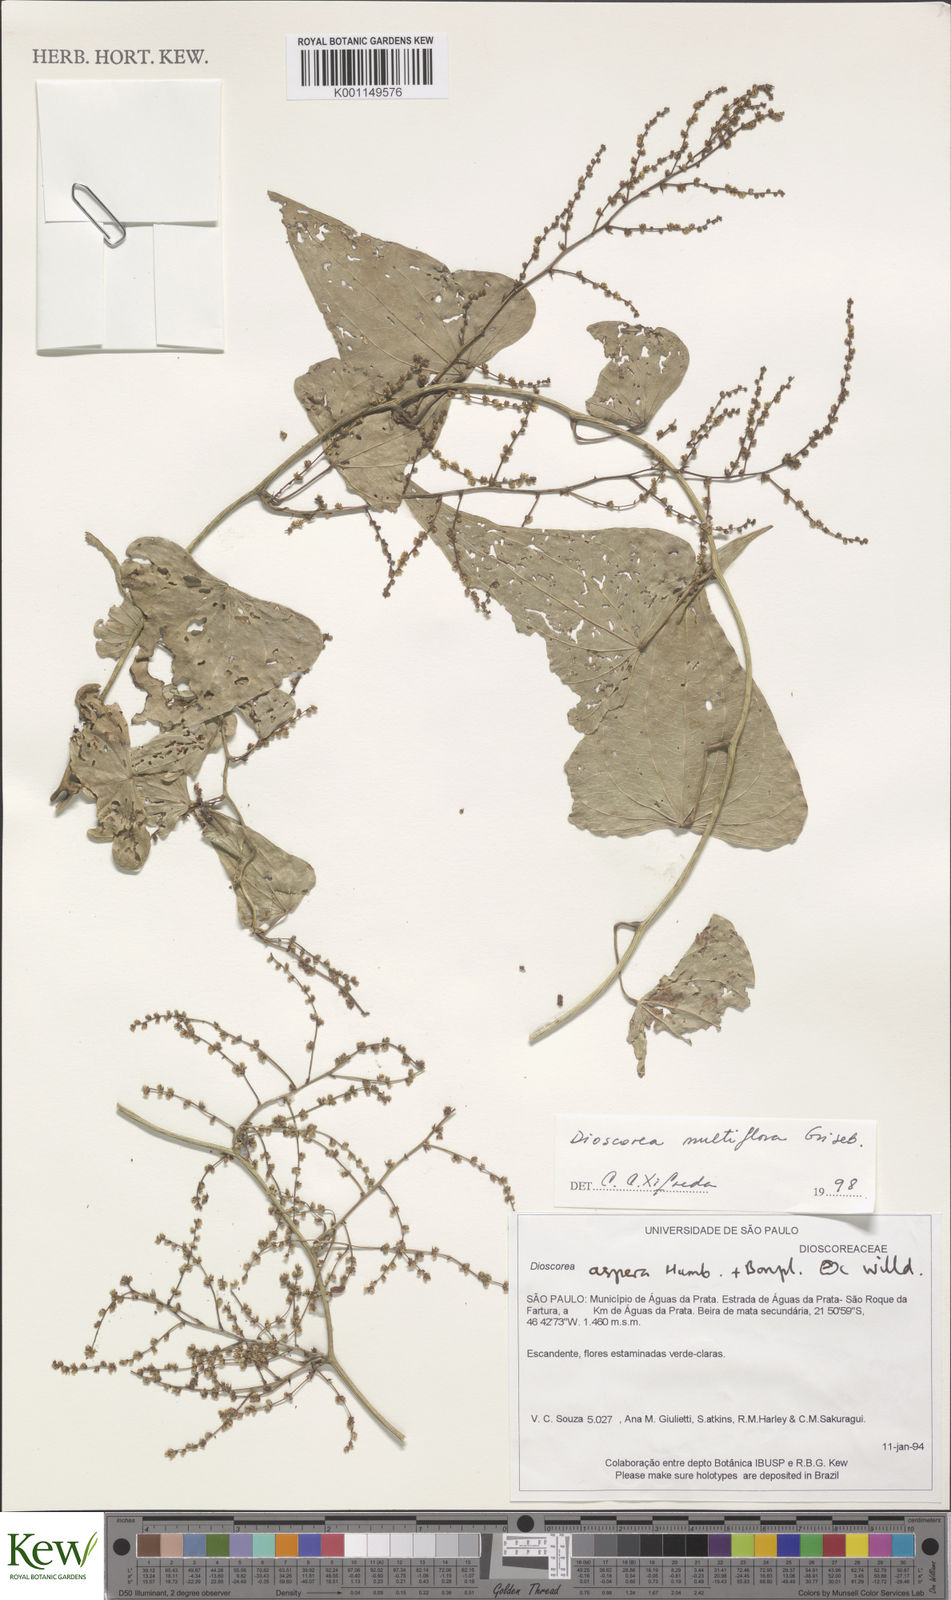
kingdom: Plantae
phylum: Tracheophyta
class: Liliopsida
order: Dioscoreales
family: Dioscoreaceae
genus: Dioscorea
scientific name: Dioscorea multiflora
